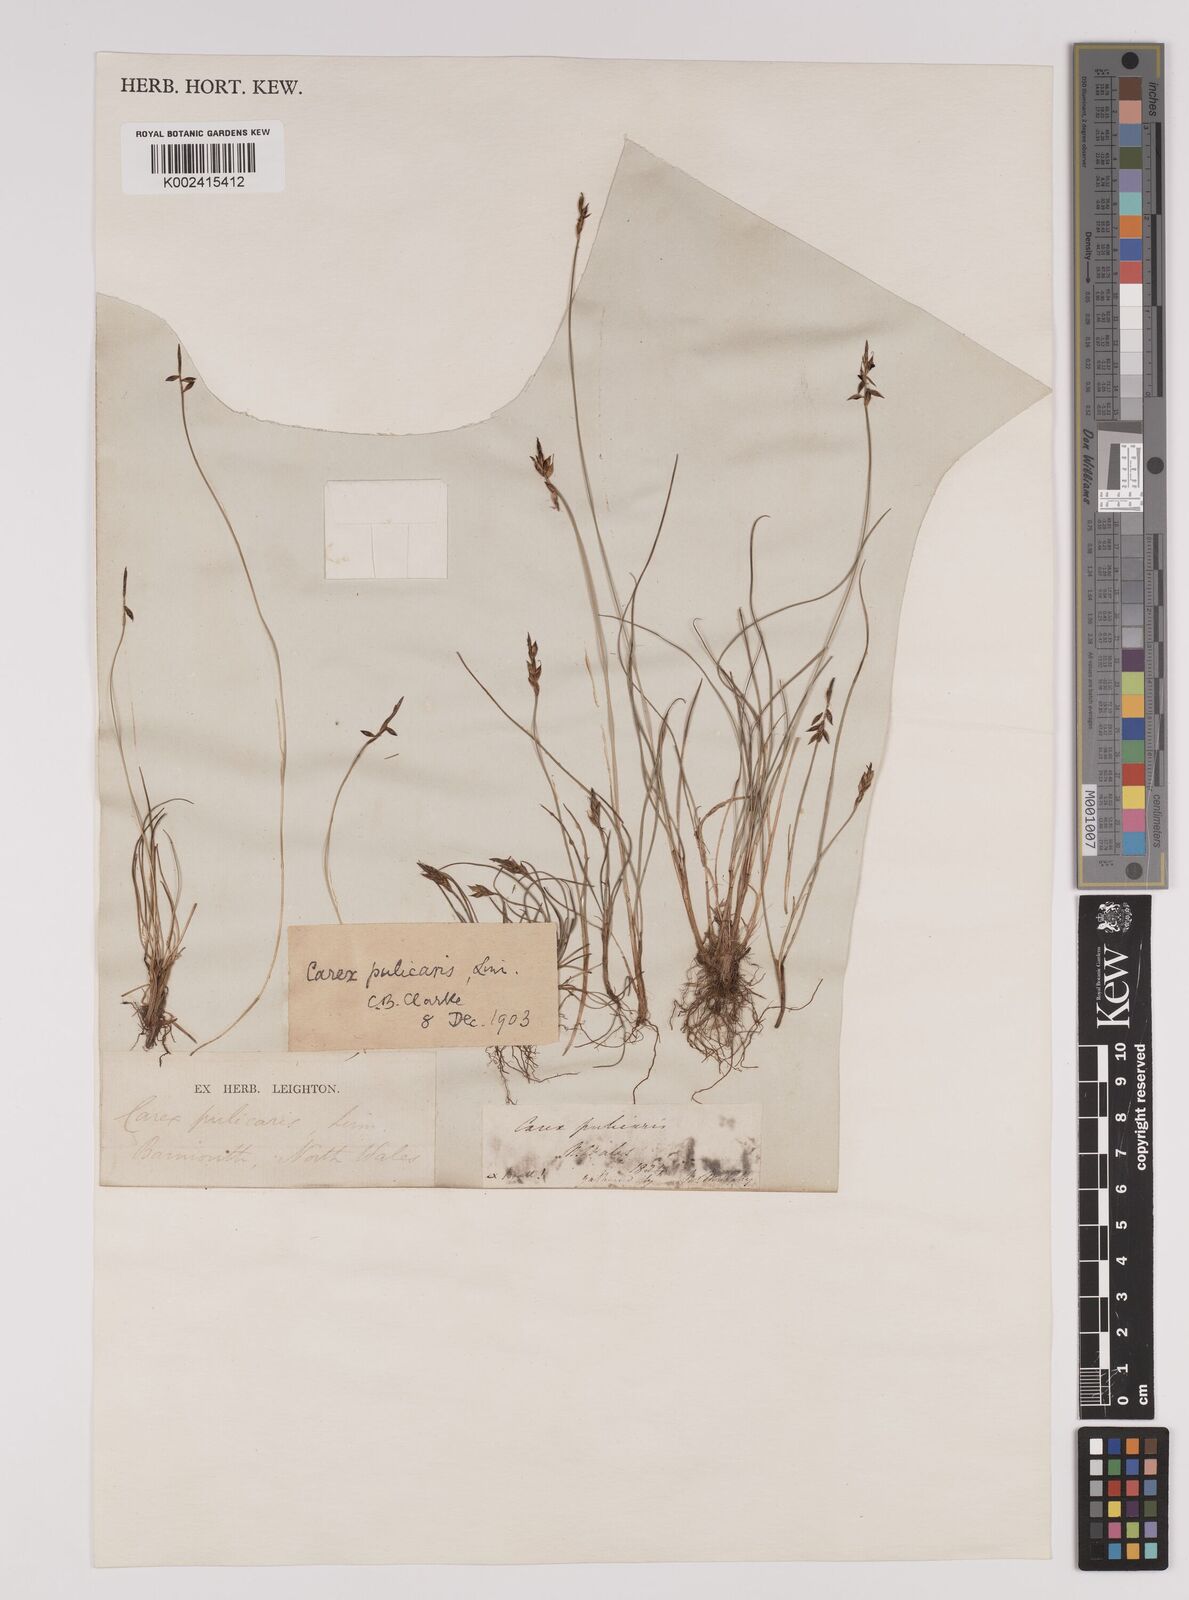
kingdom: Plantae
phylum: Tracheophyta
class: Liliopsida
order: Poales
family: Cyperaceae
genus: Carex
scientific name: Carex pulicaris
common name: Flea sedge
